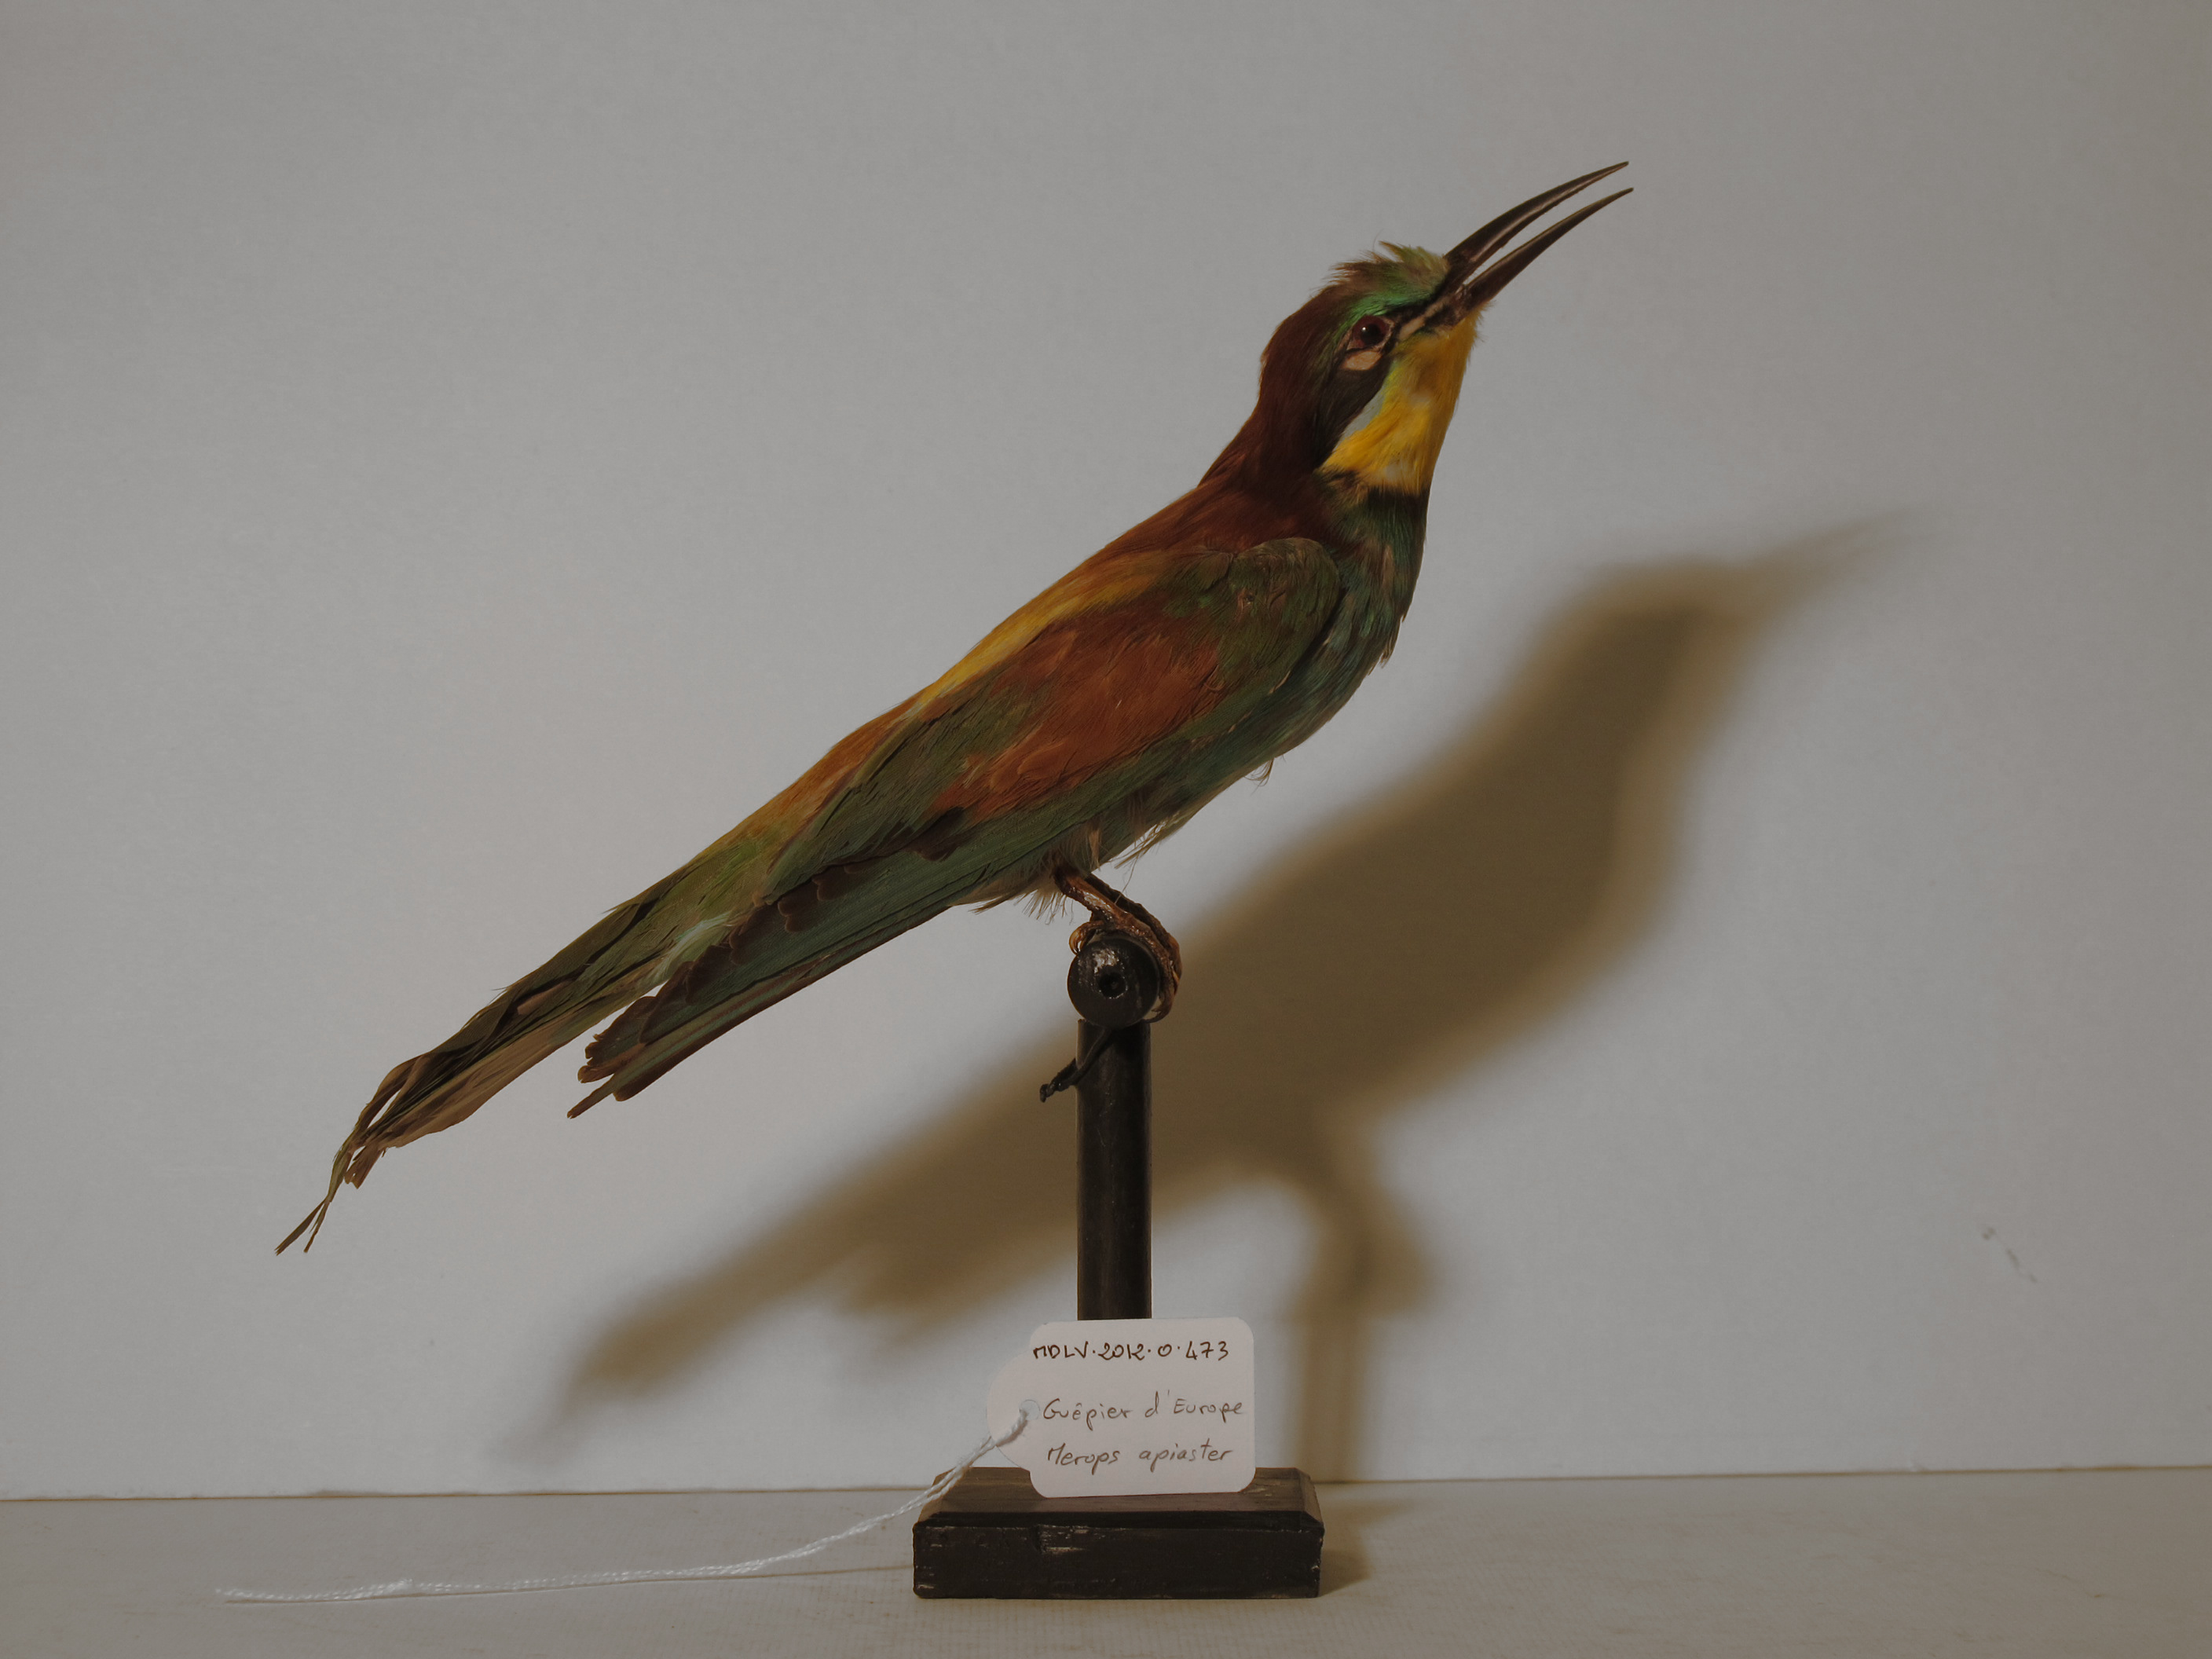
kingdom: Animalia
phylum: Chordata
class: Aves
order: Coraciiformes
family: Meropidae
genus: Merops
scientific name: Merops apiaster
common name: European Bee-eater
